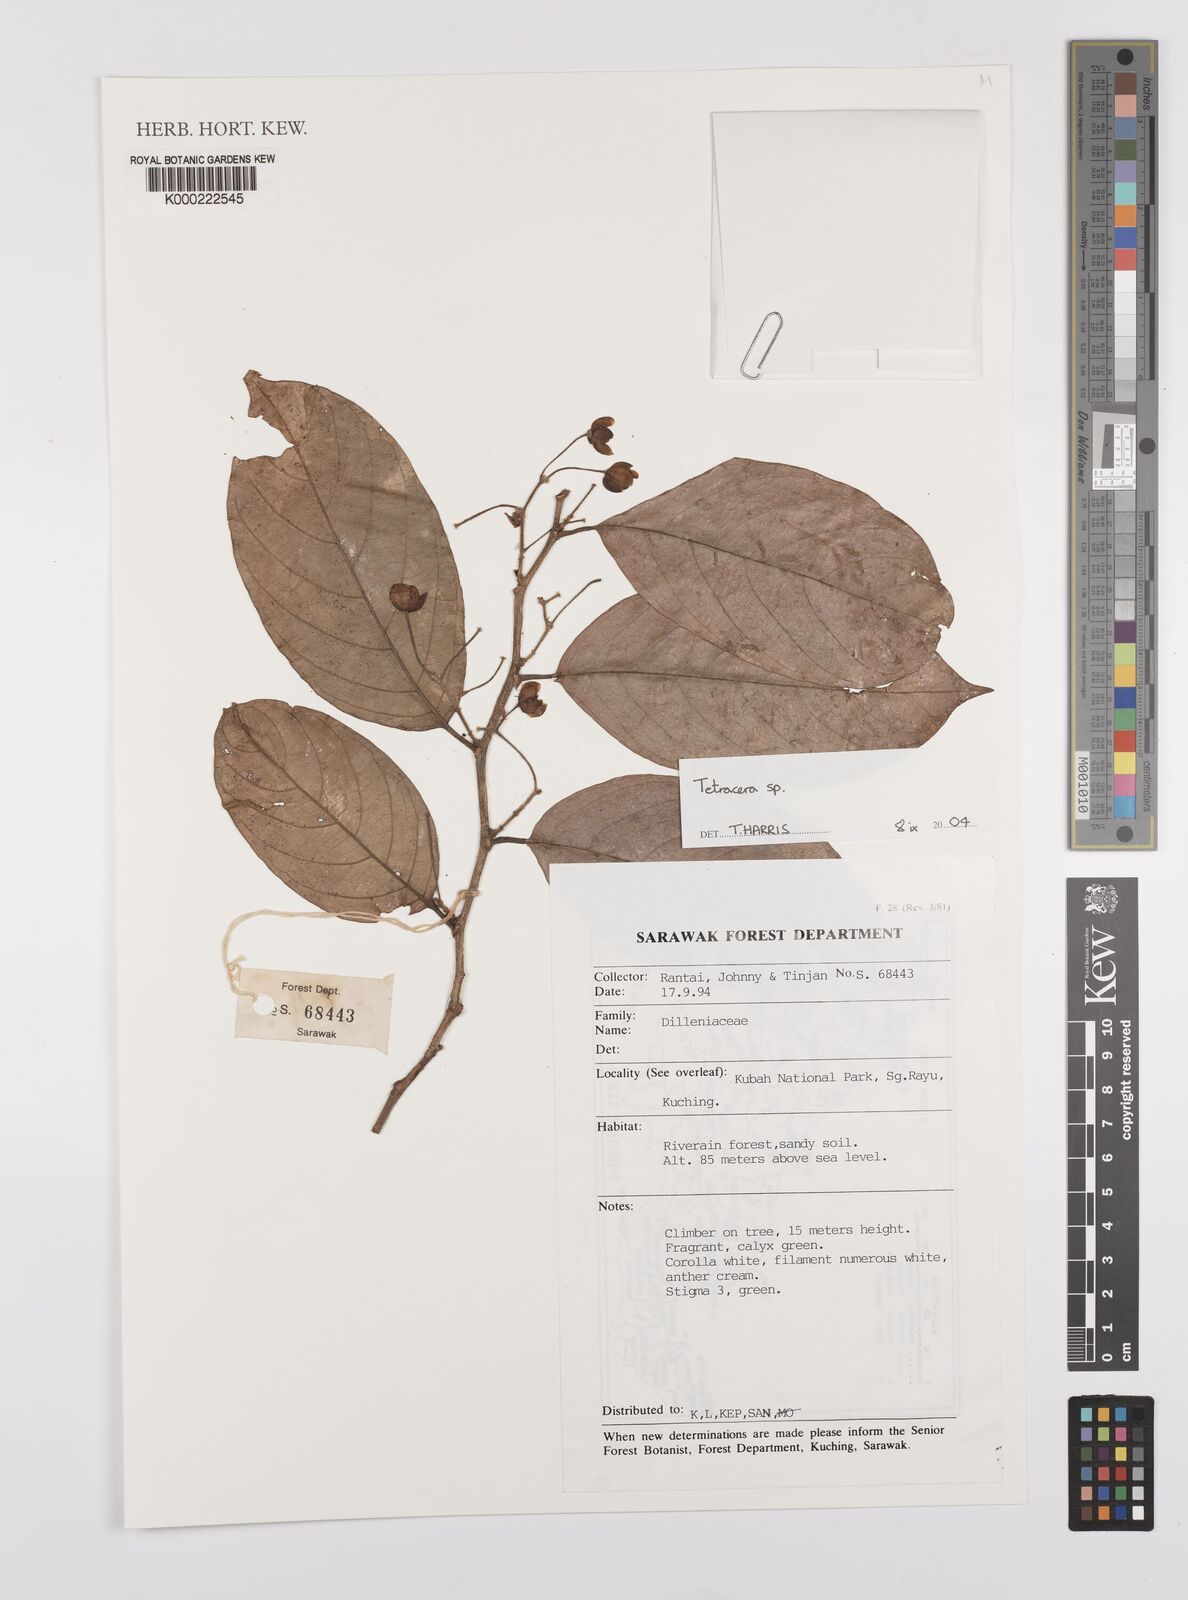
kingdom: Plantae
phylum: Tracheophyta
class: Magnoliopsida
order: Dilleniales
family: Dilleniaceae
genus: Tetracera
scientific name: Tetracera
